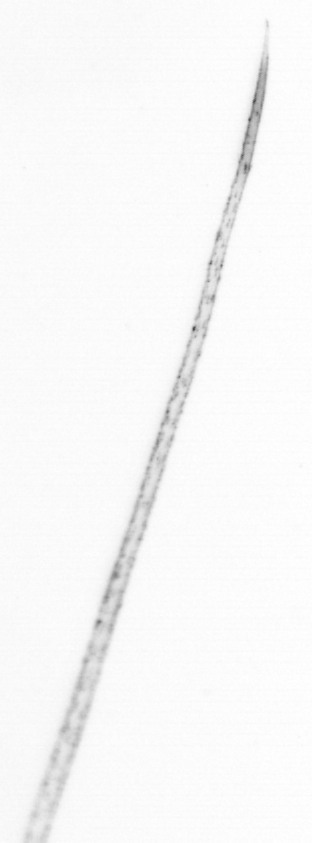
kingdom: Chromista
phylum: Ochrophyta
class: Bacillariophyceae
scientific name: Bacillariophyceae
